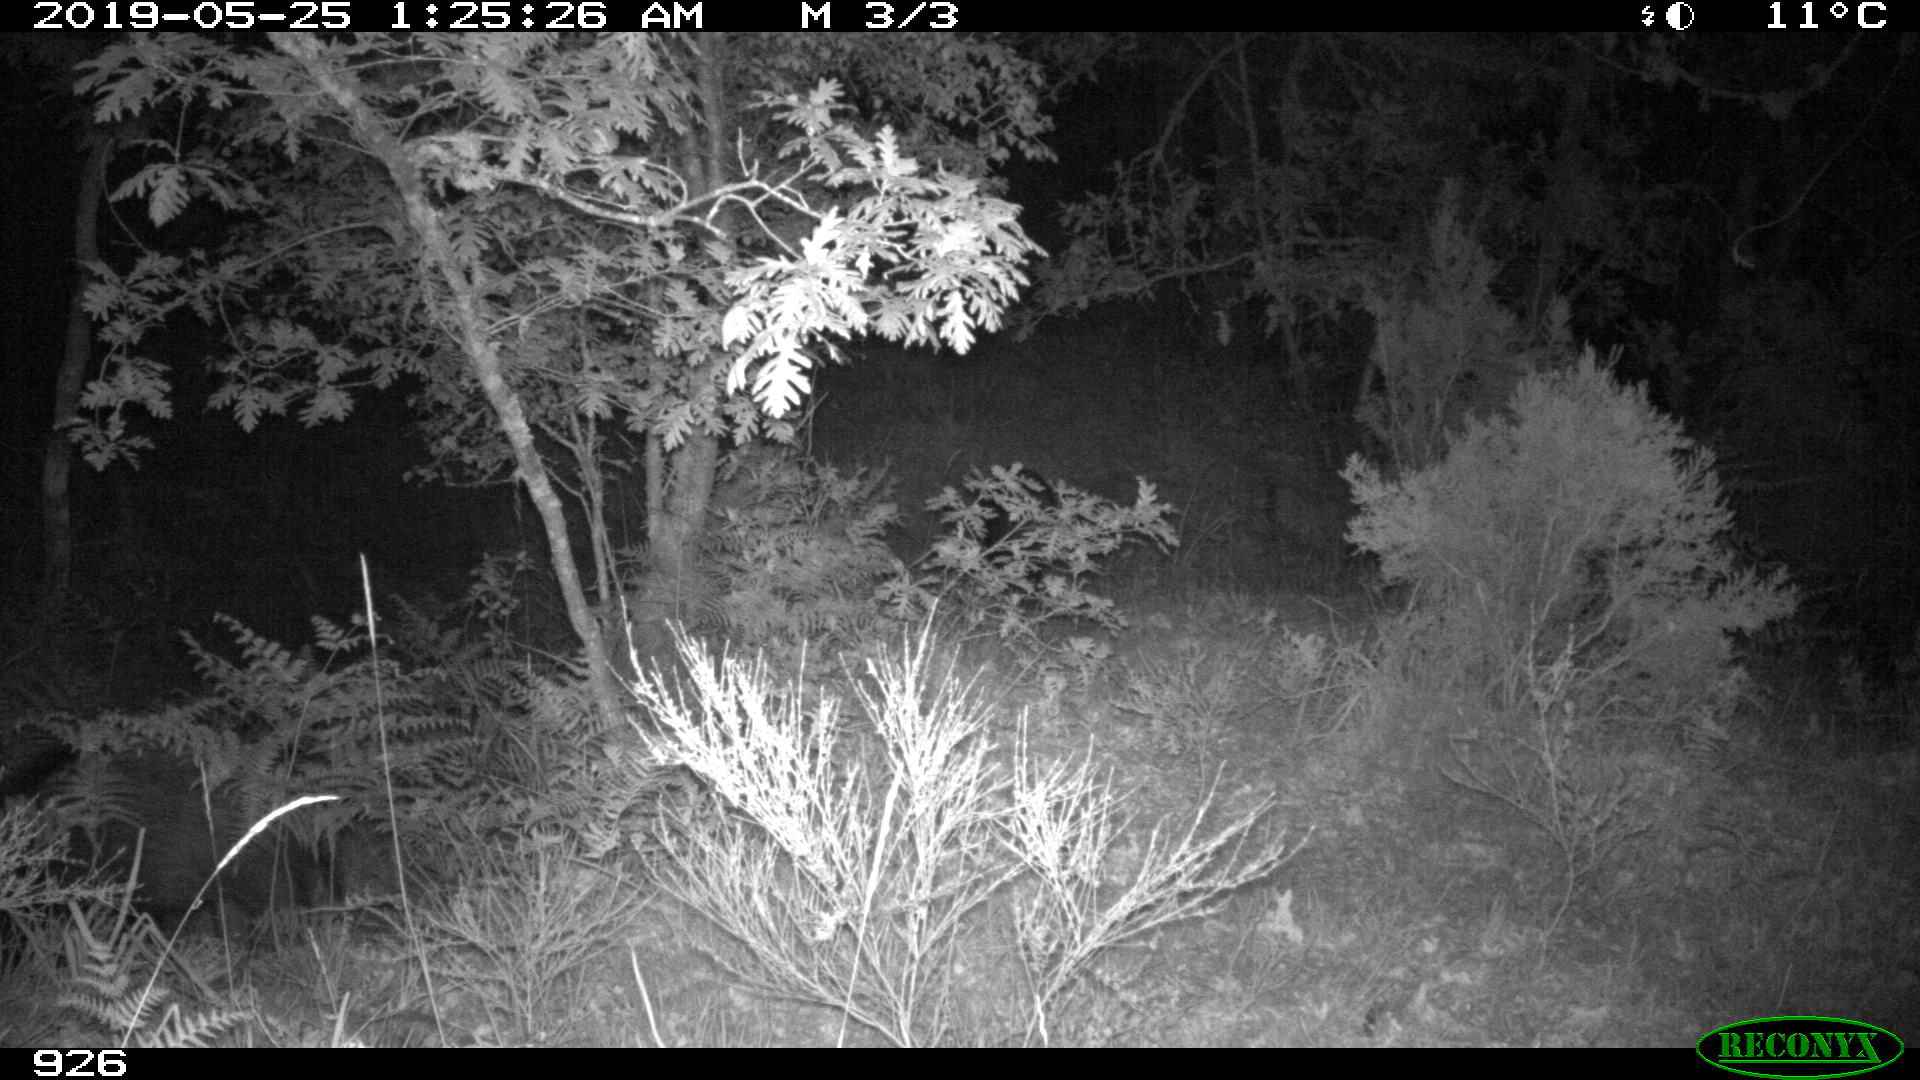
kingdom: Animalia
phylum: Chordata
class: Mammalia
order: Artiodactyla
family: Suidae
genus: Sus
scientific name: Sus scrofa
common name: Wild boar
